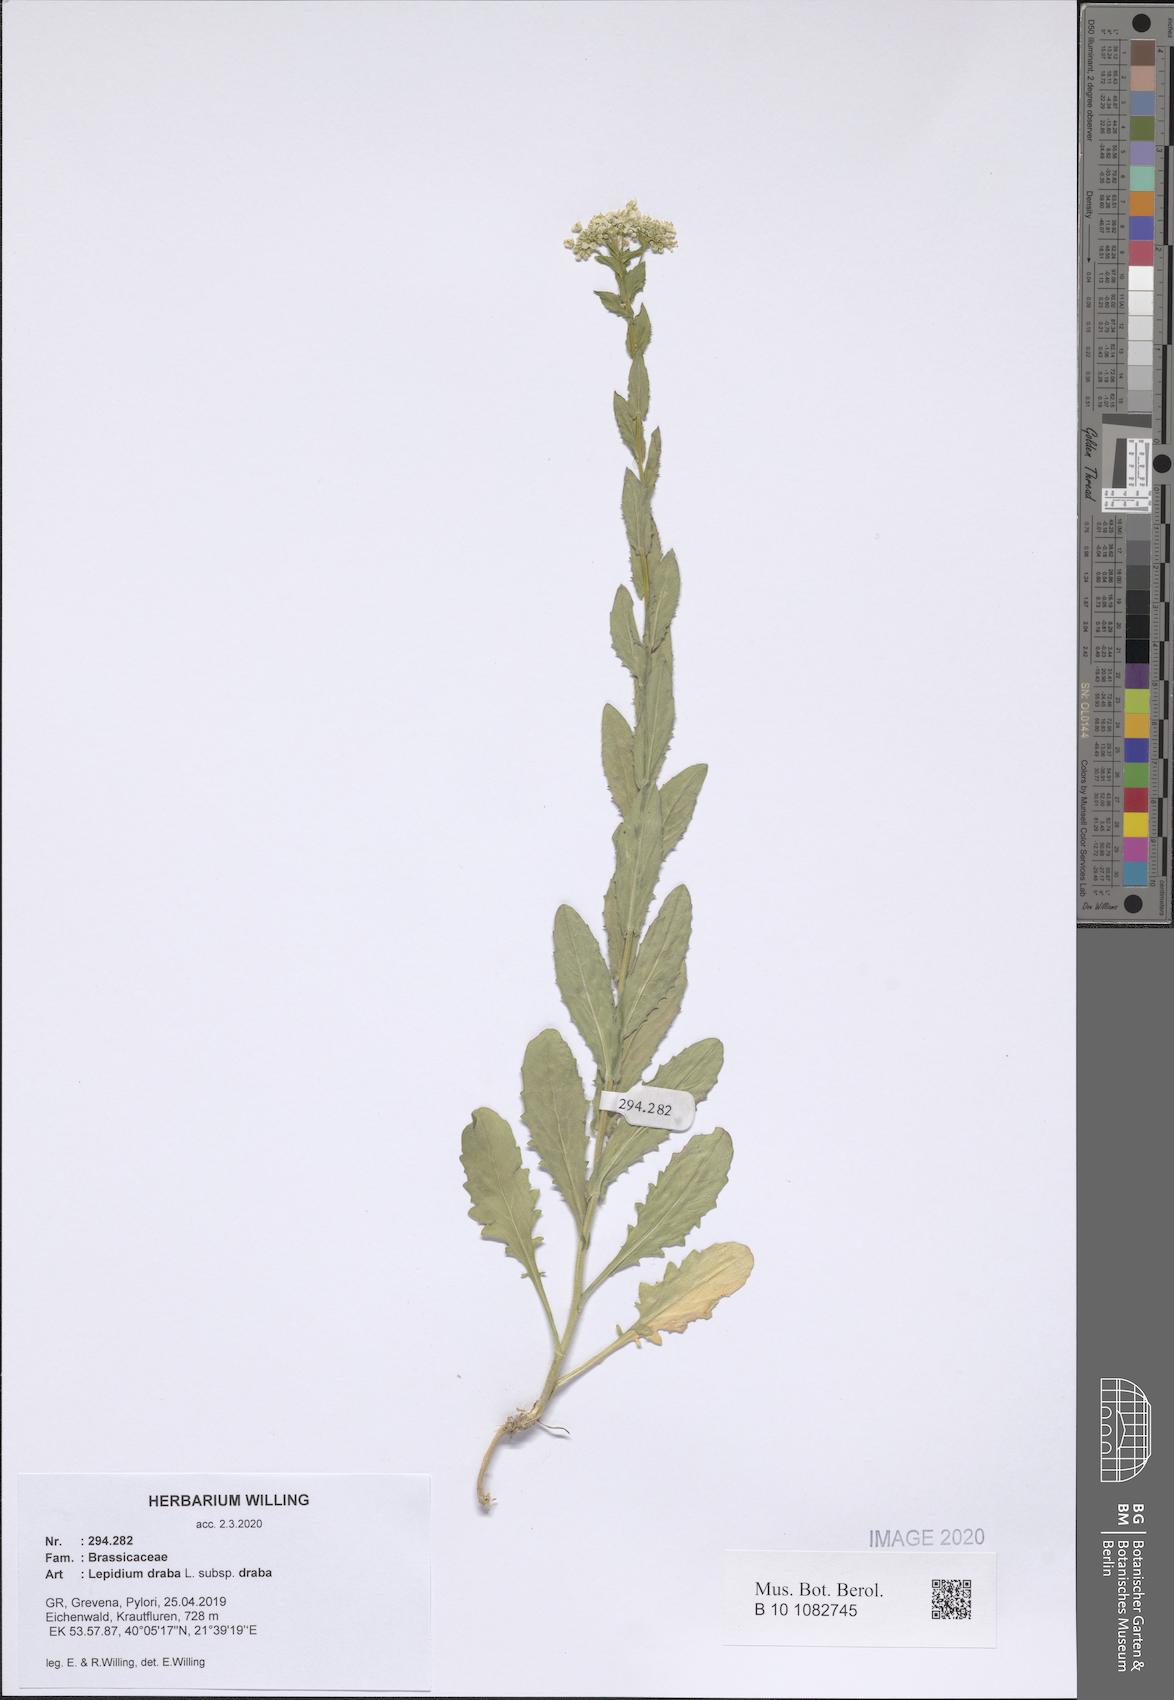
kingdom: Plantae
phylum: Tracheophyta
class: Magnoliopsida
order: Brassicales
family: Brassicaceae
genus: Lepidium
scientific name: Lepidium draba
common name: Hoary cress
